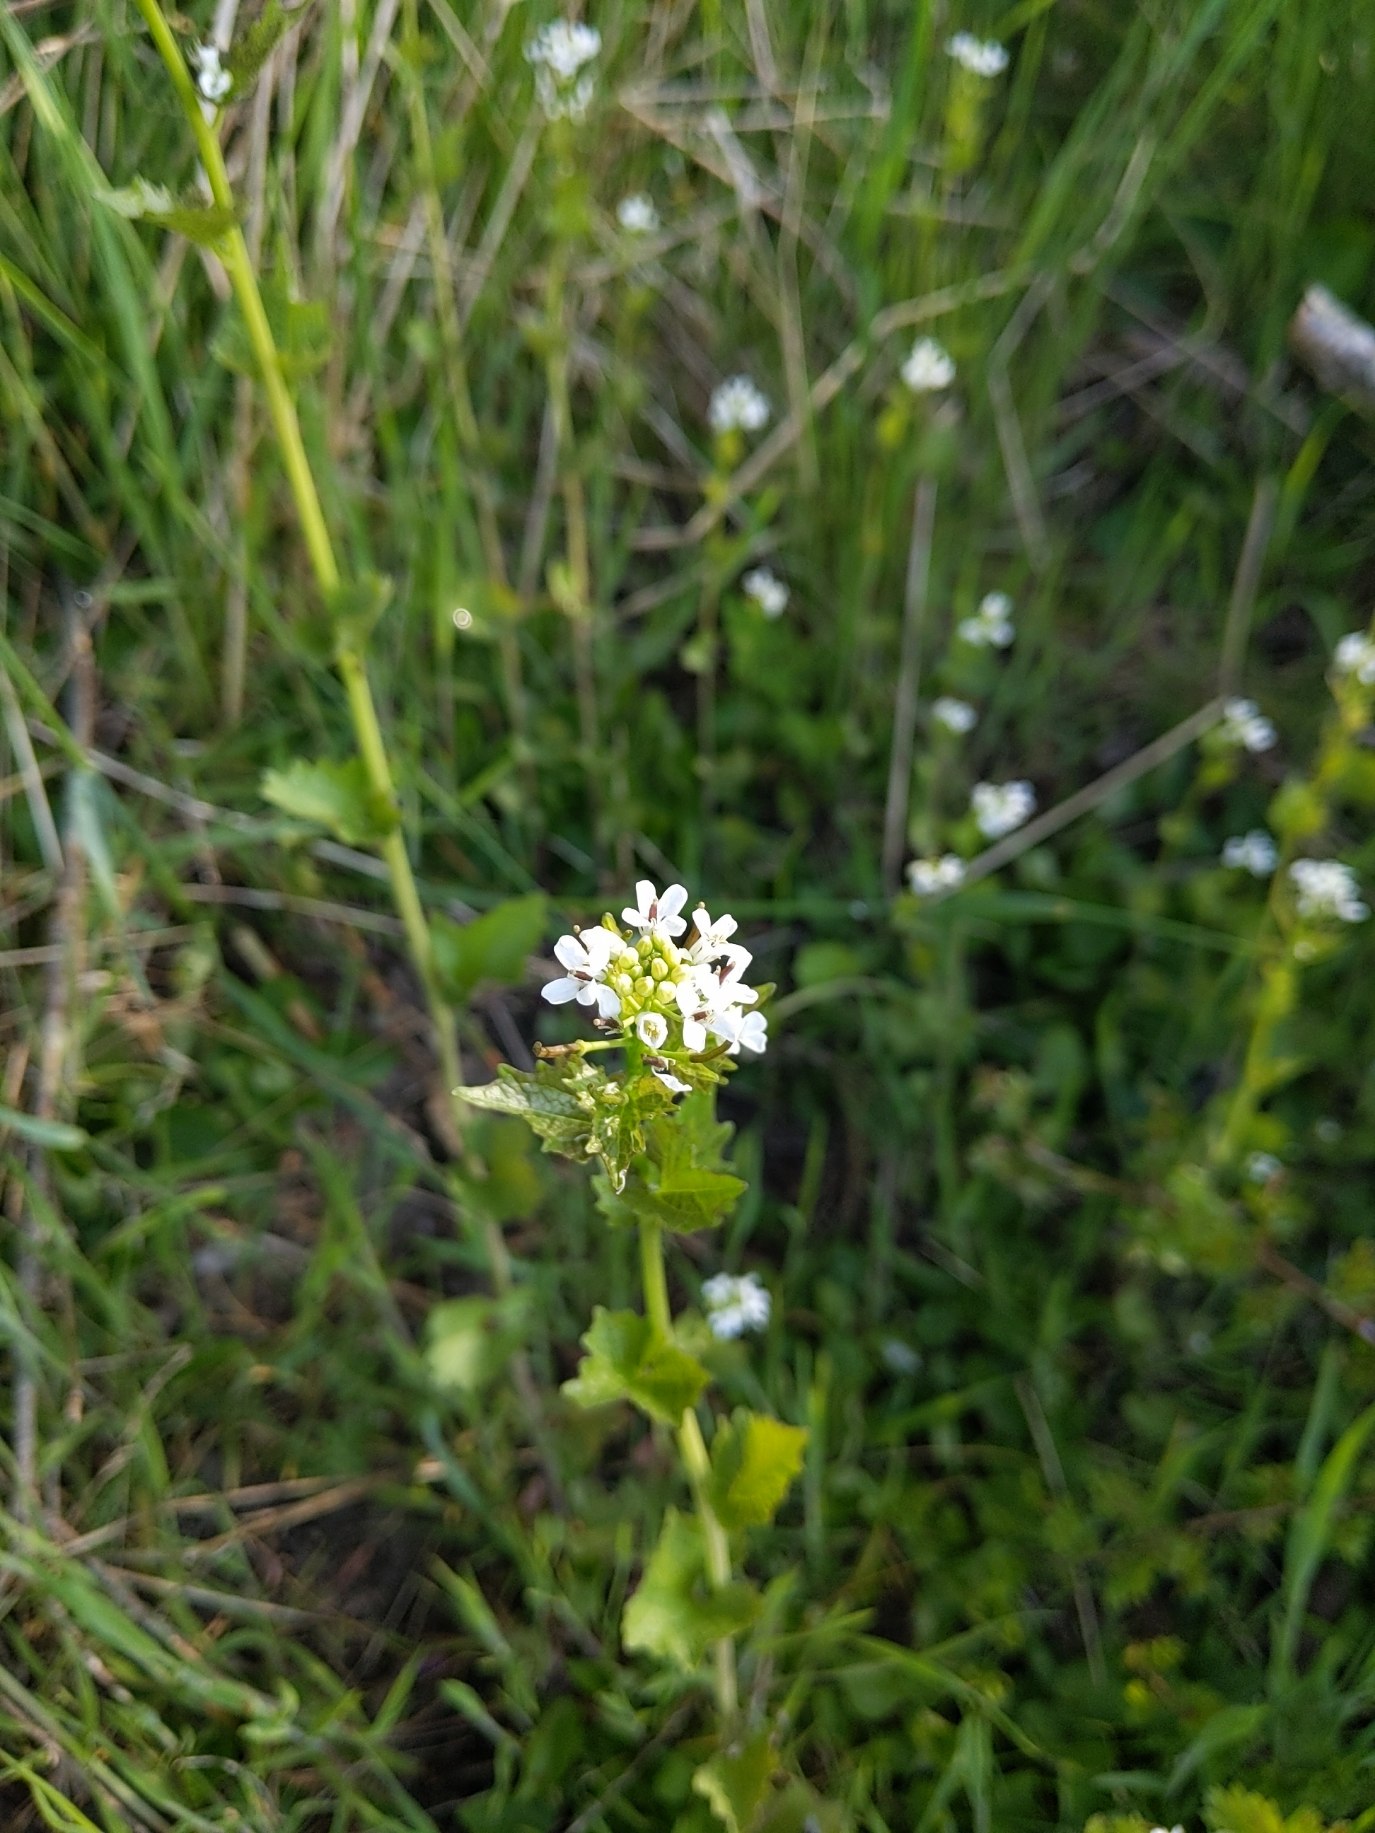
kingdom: Plantae
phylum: Tracheophyta
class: Magnoliopsida
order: Brassicales
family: Brassicaceae
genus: Alliaria
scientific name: Alliaria petiolata
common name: Løgkarse
